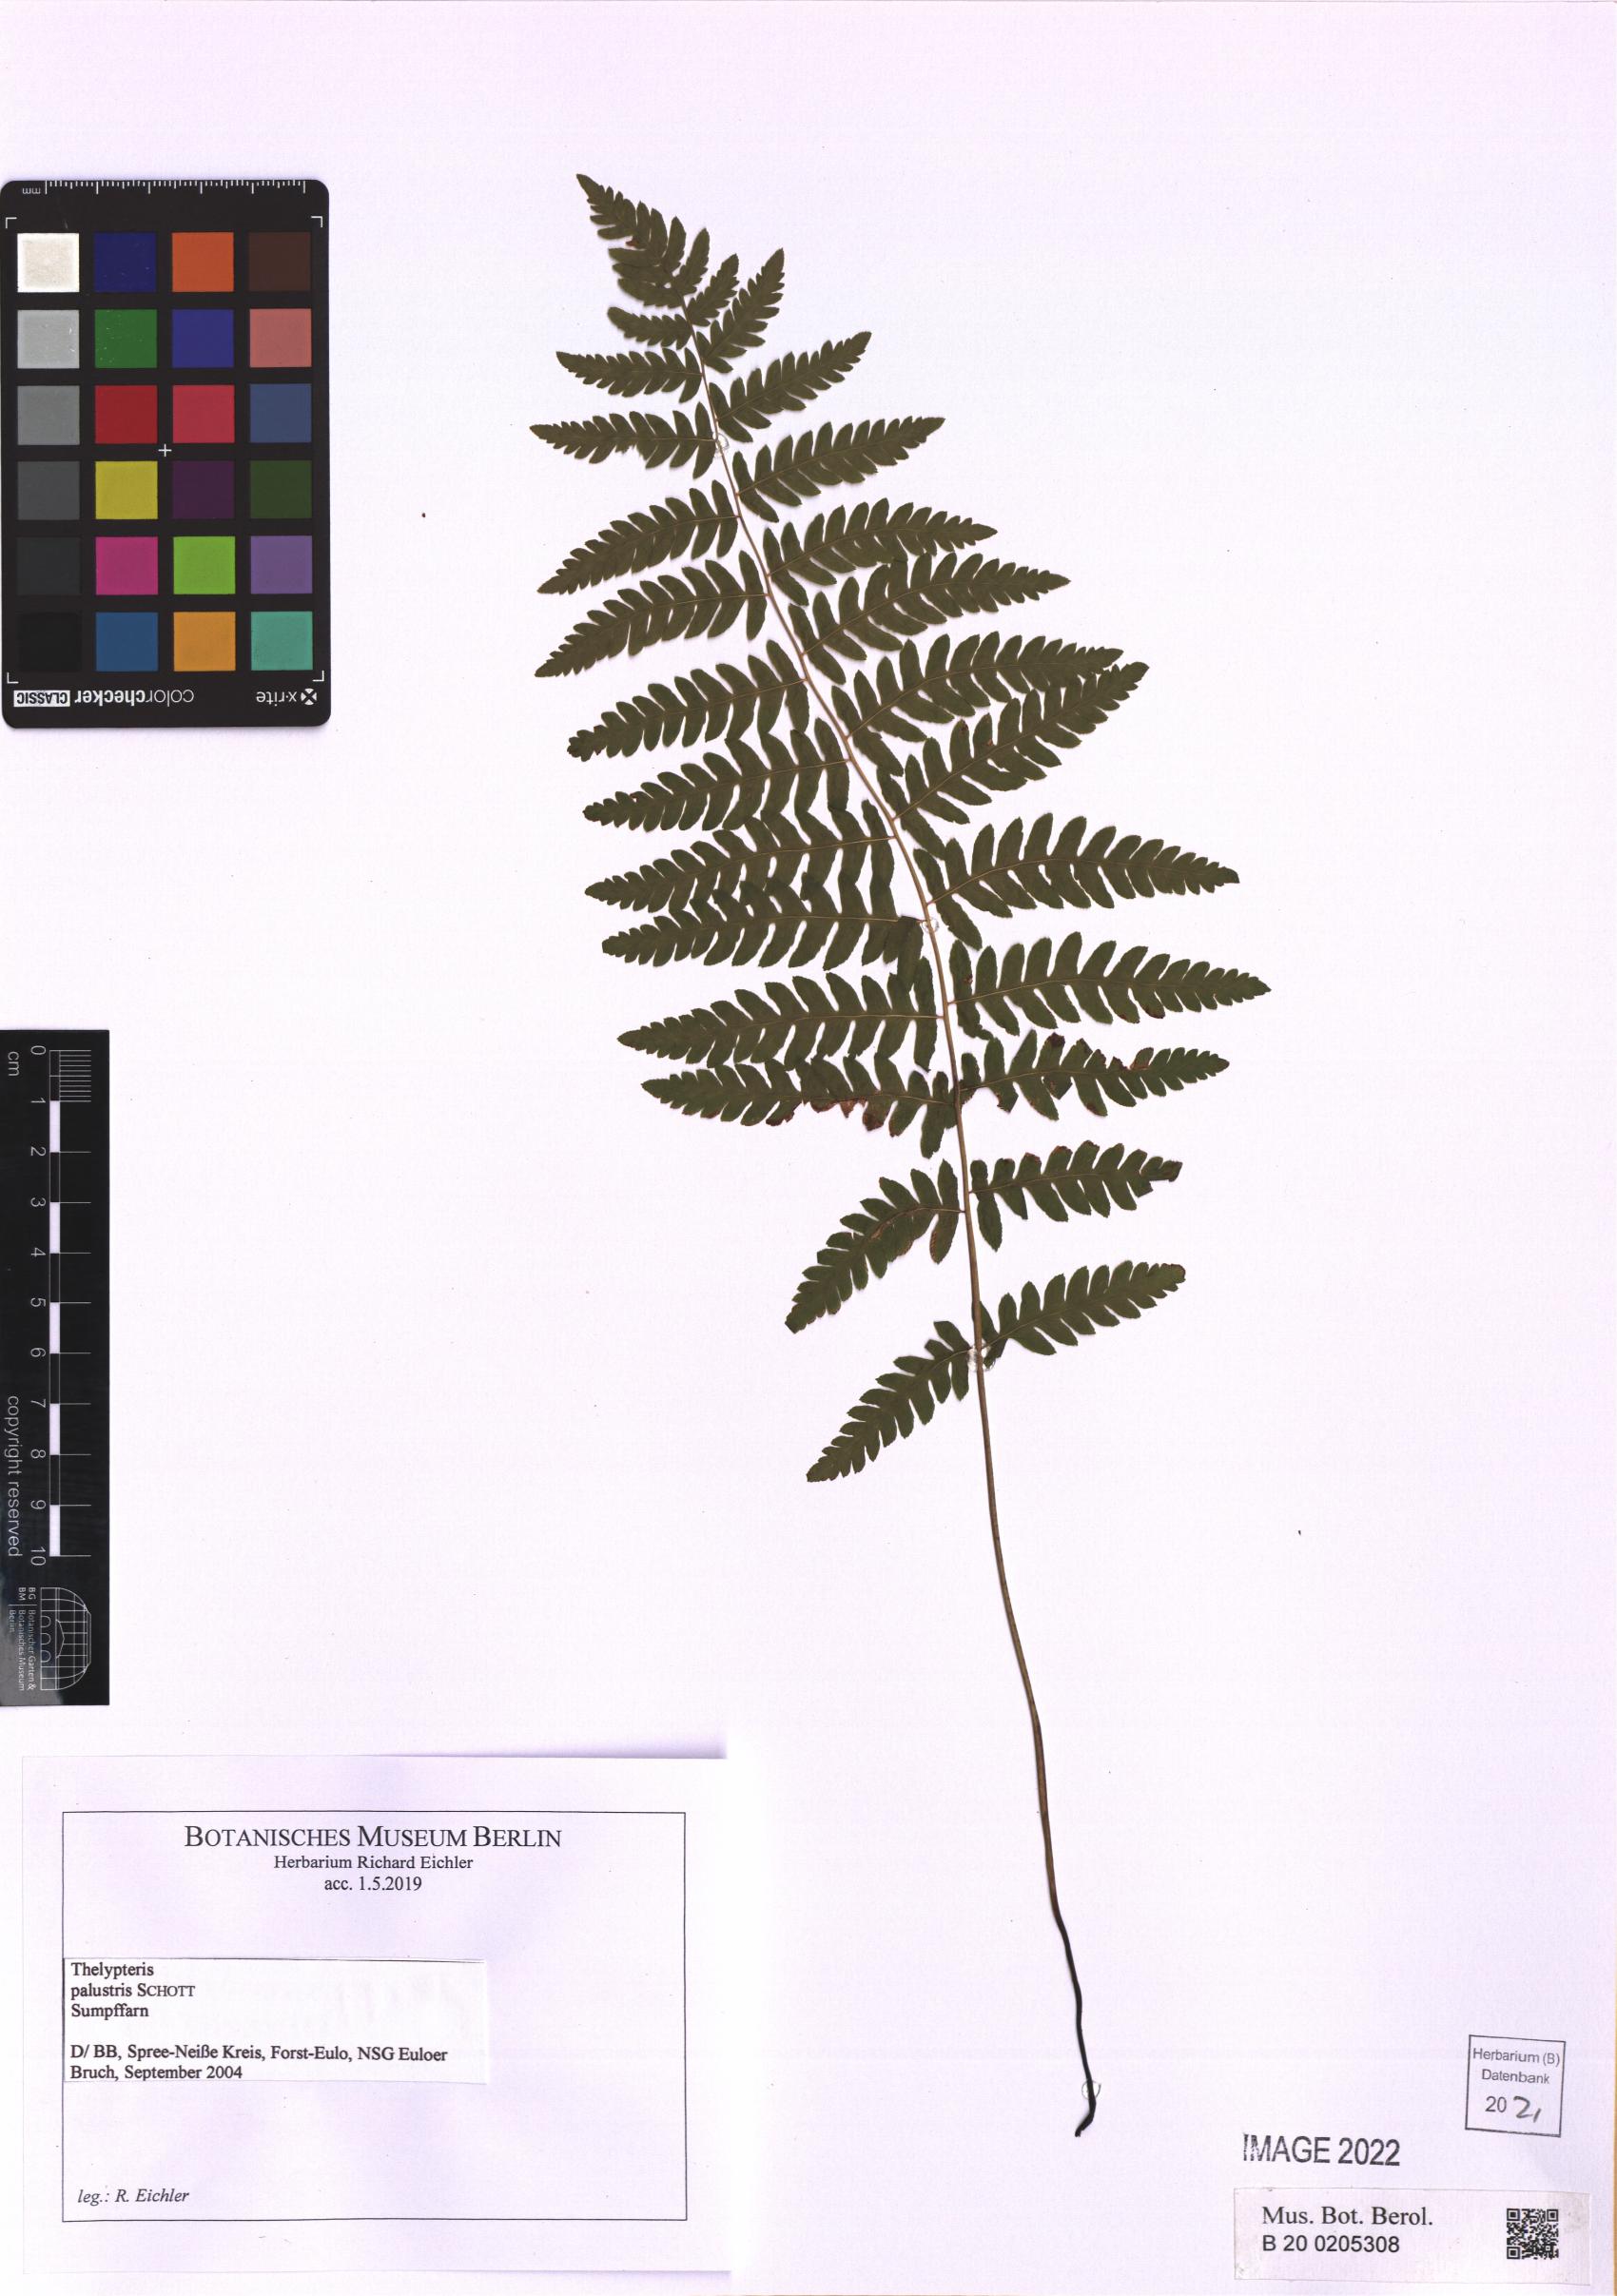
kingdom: Plantae
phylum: Tracheophyta
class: Polypodiopsida
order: Polypodiales
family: Thelypteridaceae
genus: Thelypteris
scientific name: Thelypteris palustris
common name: Marsh fern
